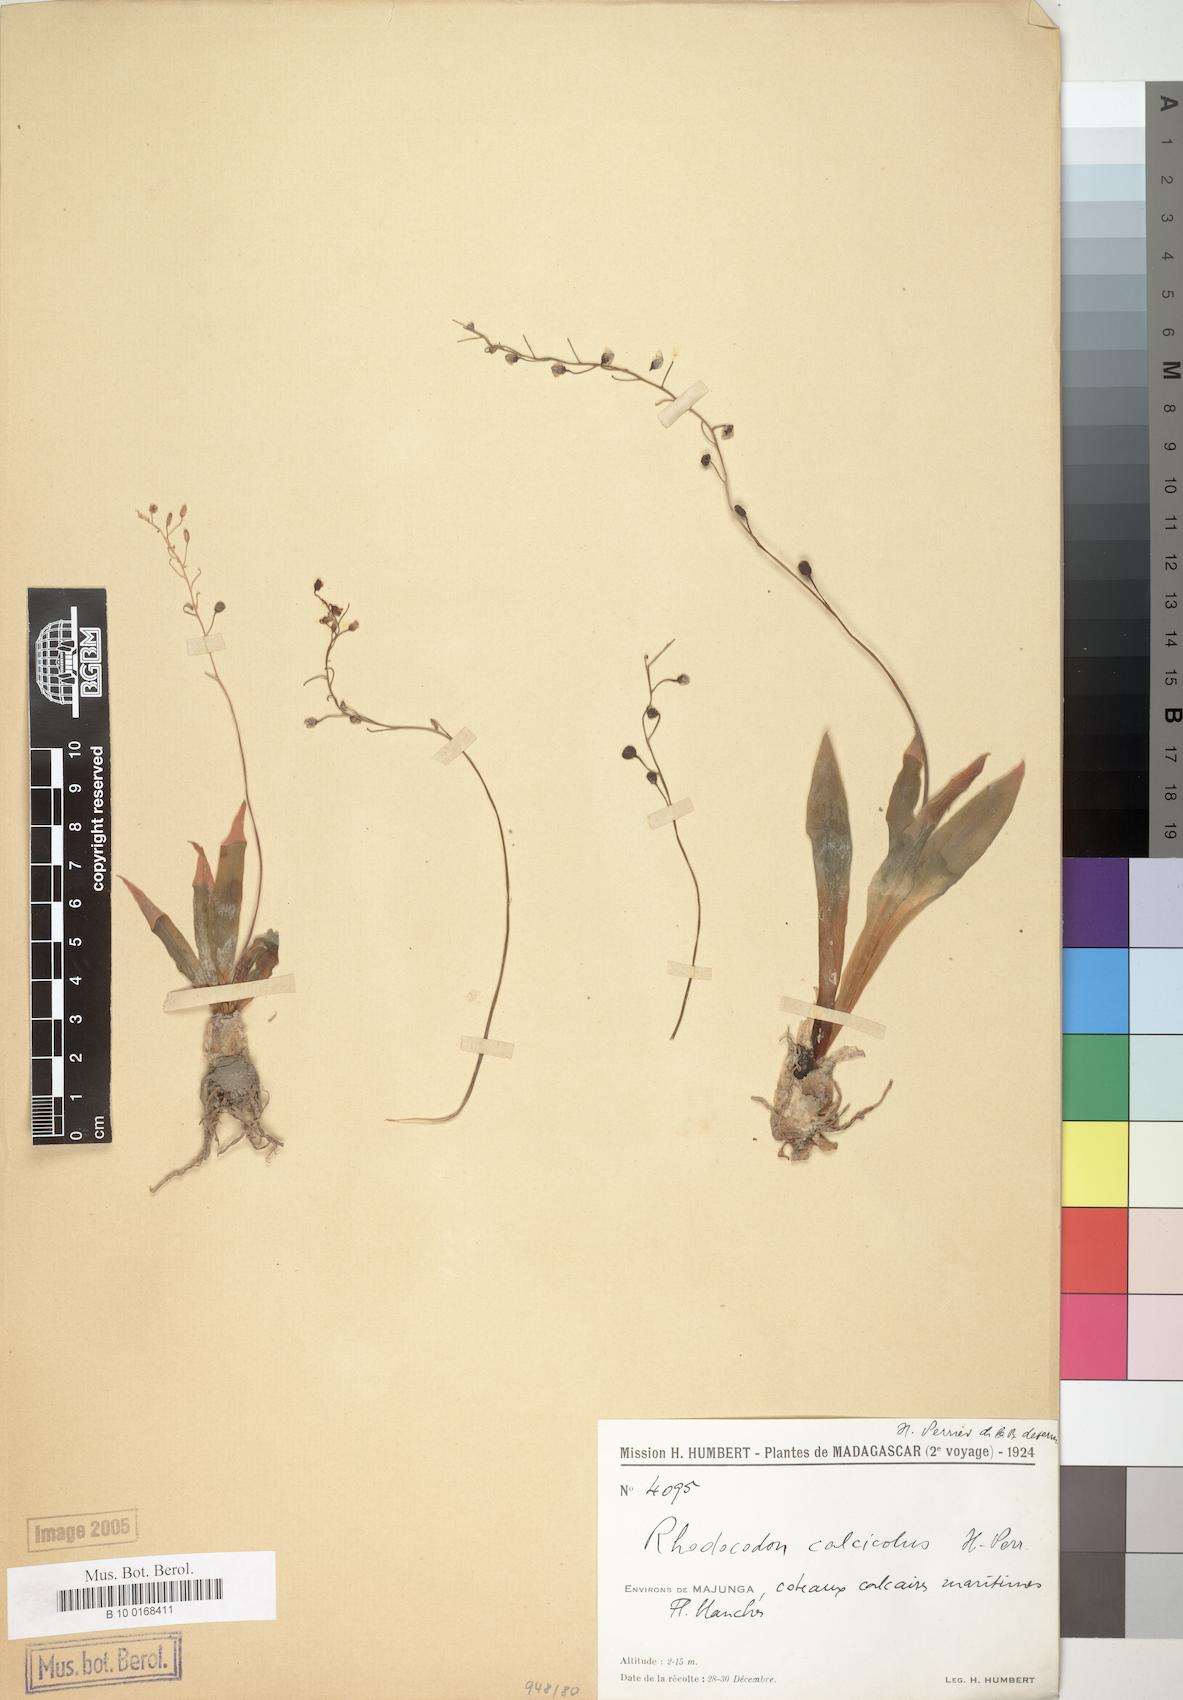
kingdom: Plantae
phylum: Tracheophyta
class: Liliopsida
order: Asparagales
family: Asparagaceae
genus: Drimia
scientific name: Drimia Rhodocodon calcicola
